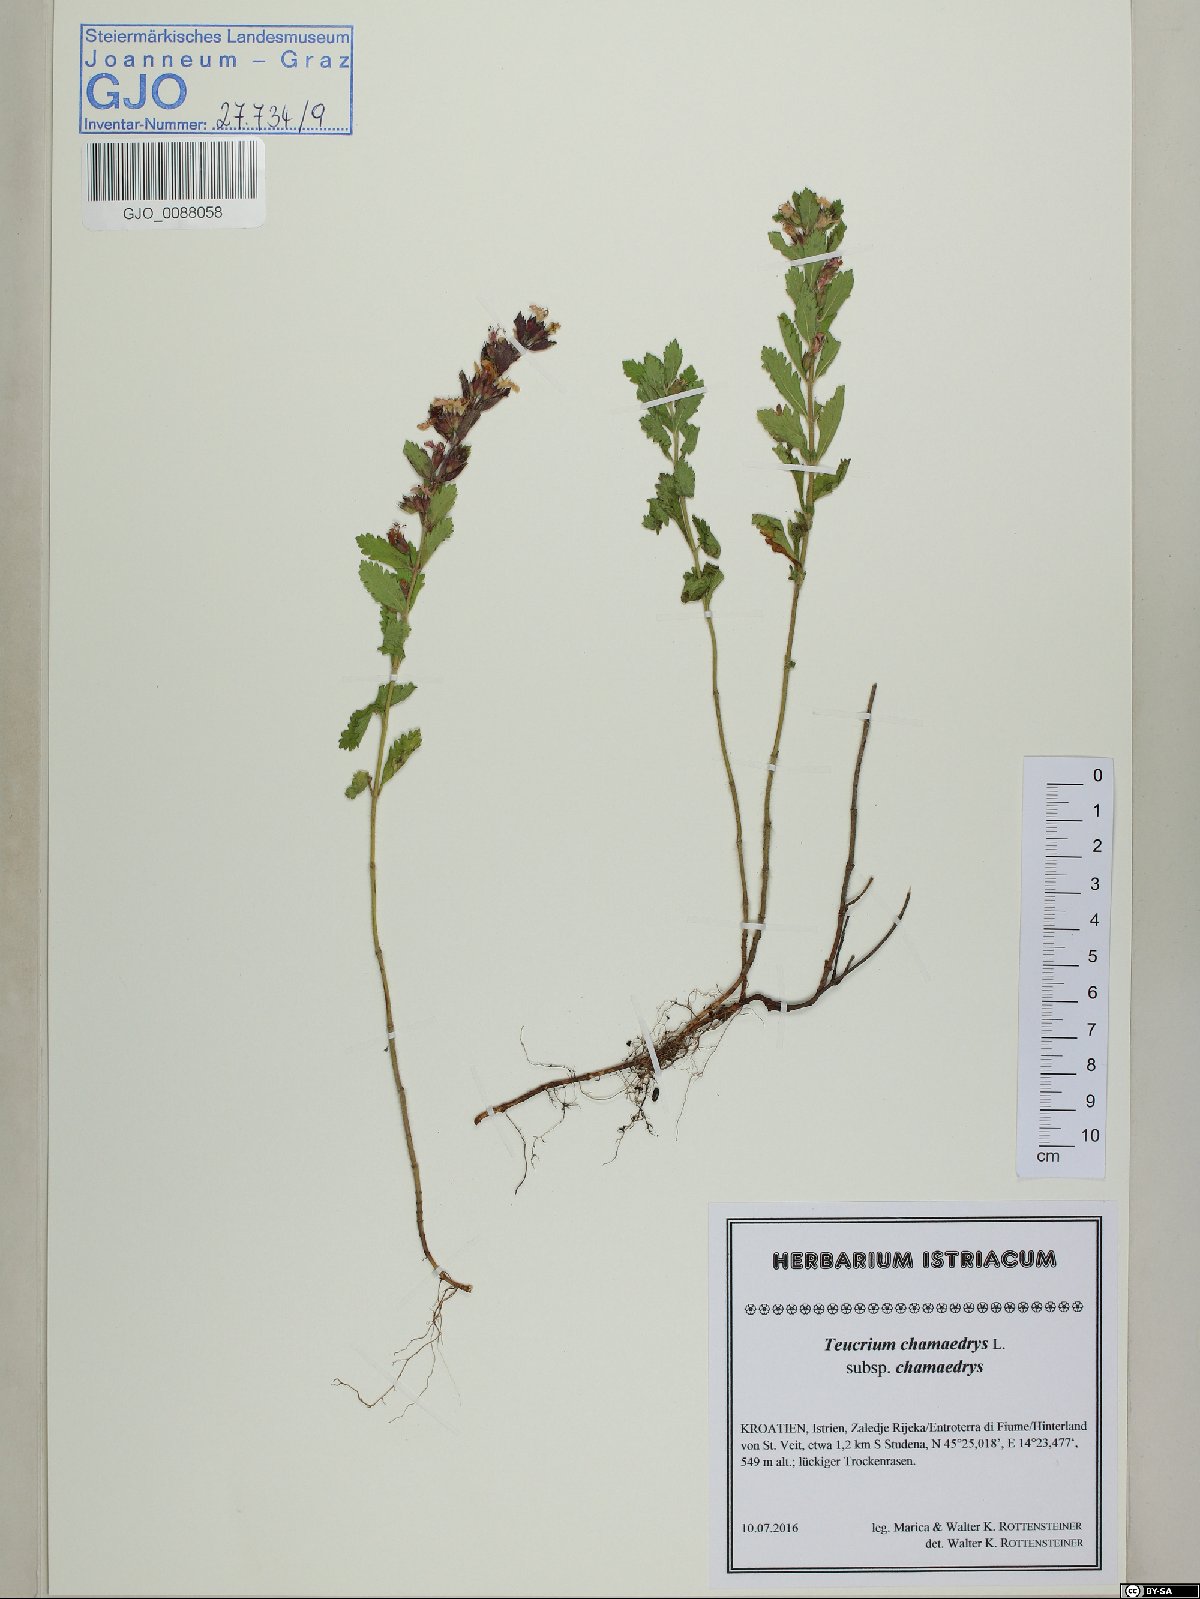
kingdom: Plantae
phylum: Tracheophyta
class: Magnoliopsida
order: Lamiales
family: Lamiaceae
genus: Teucrium
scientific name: Teucrium chamaedrys
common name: Wall germander
